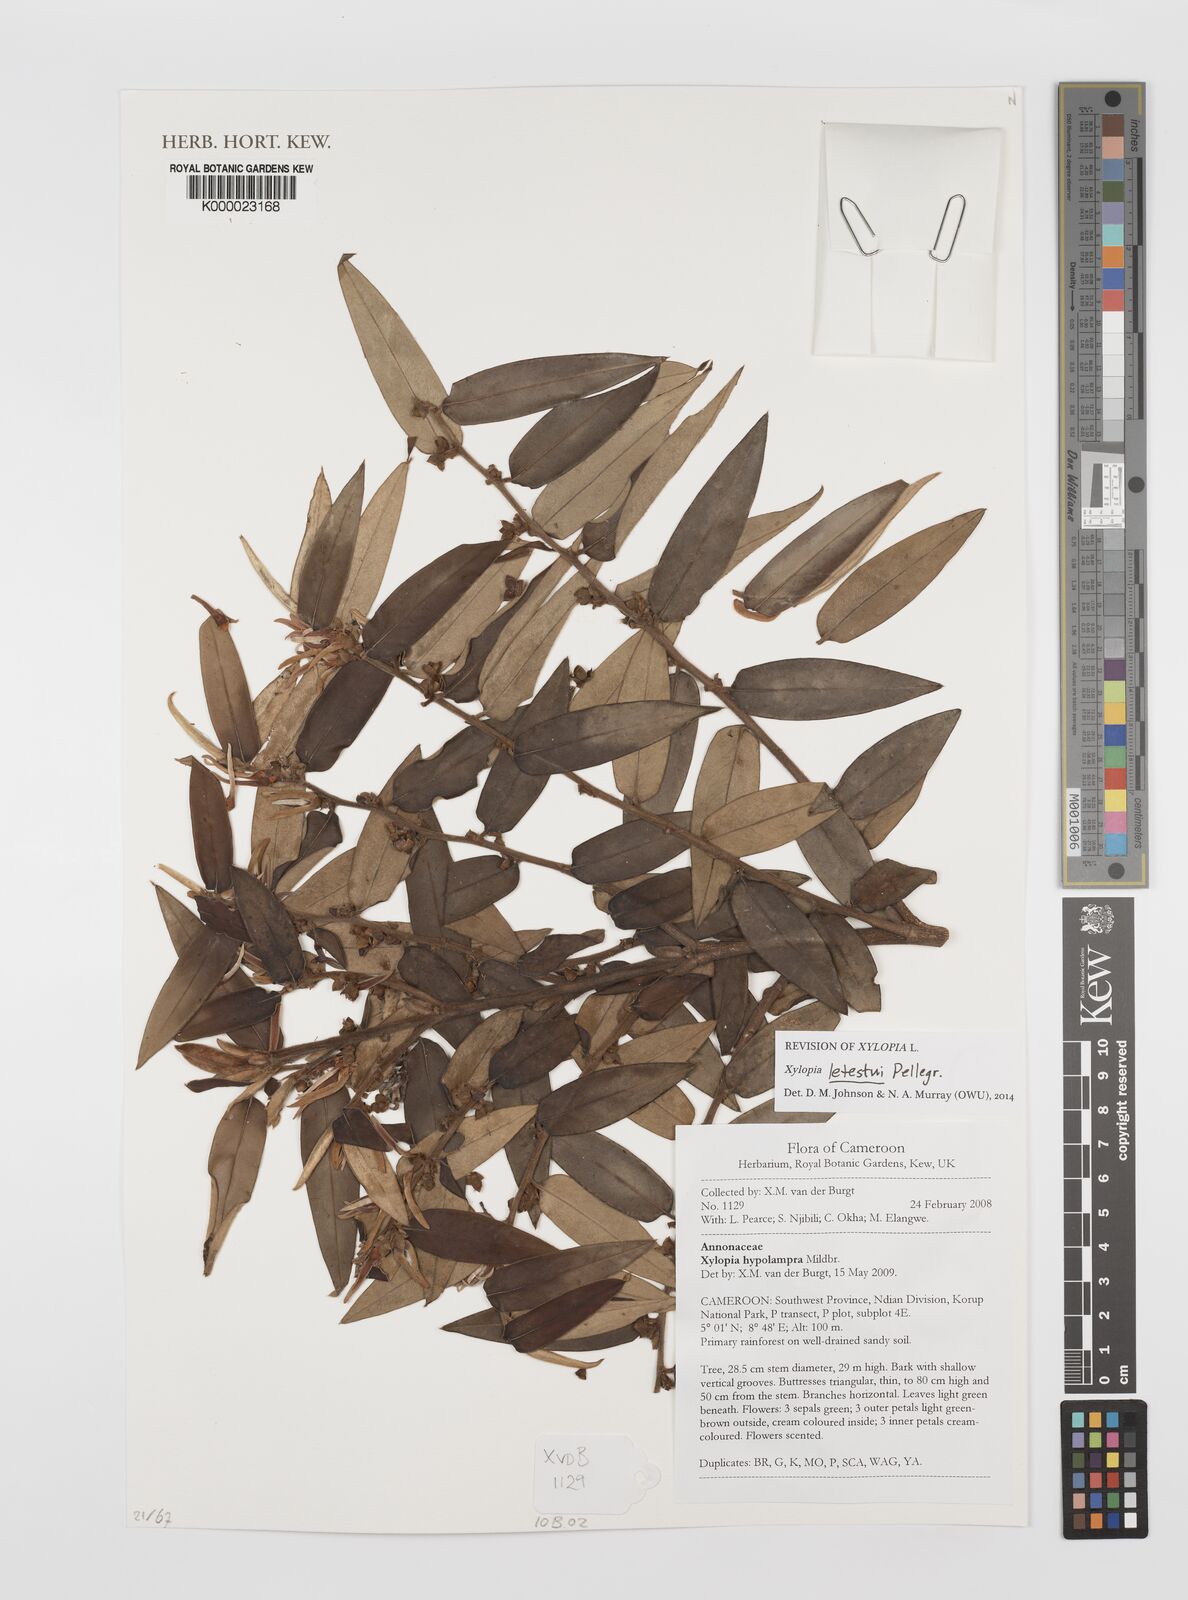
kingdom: Plantae
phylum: Tracheophyta
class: Magnoliopsida
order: Magnoliales
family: Annonaceae
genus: Xylopia
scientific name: Xylopia hypolampra
